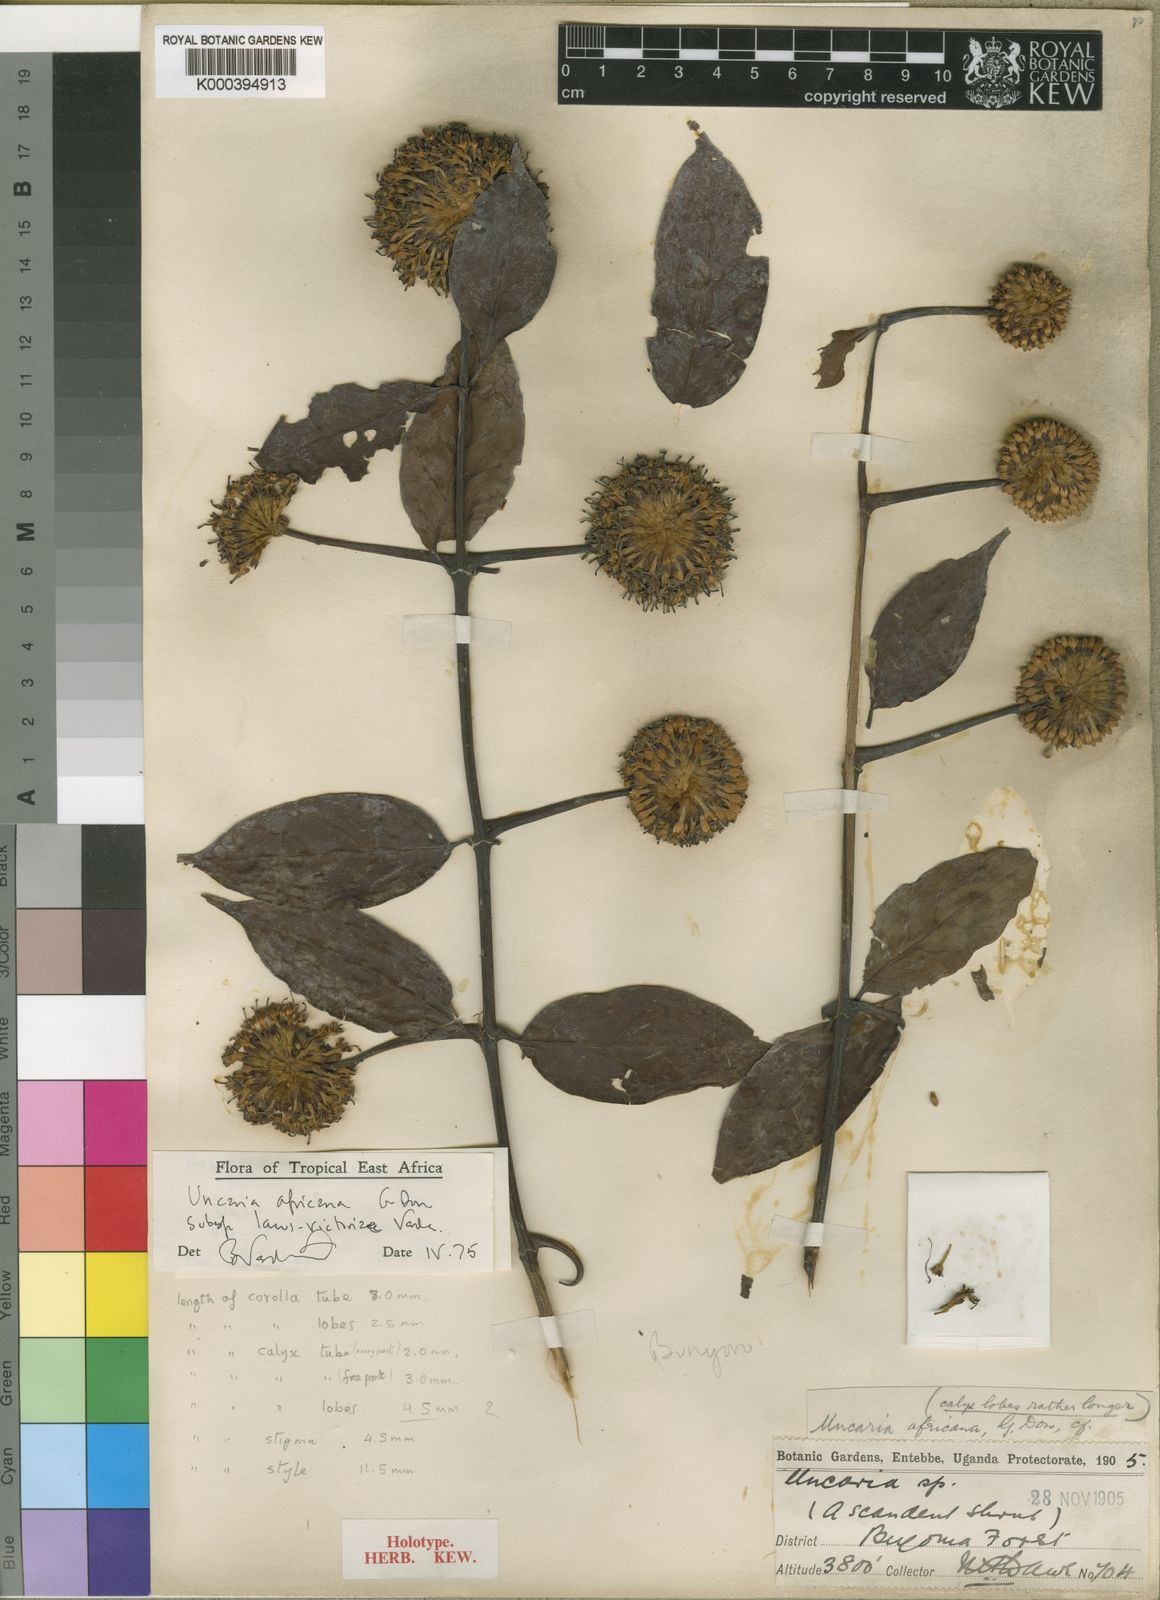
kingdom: Plantae
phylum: Tracheophyta
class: Magnoliopsida
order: Gentianales
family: Rubiaceae
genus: Uncaria
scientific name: Uncaria angolensis
